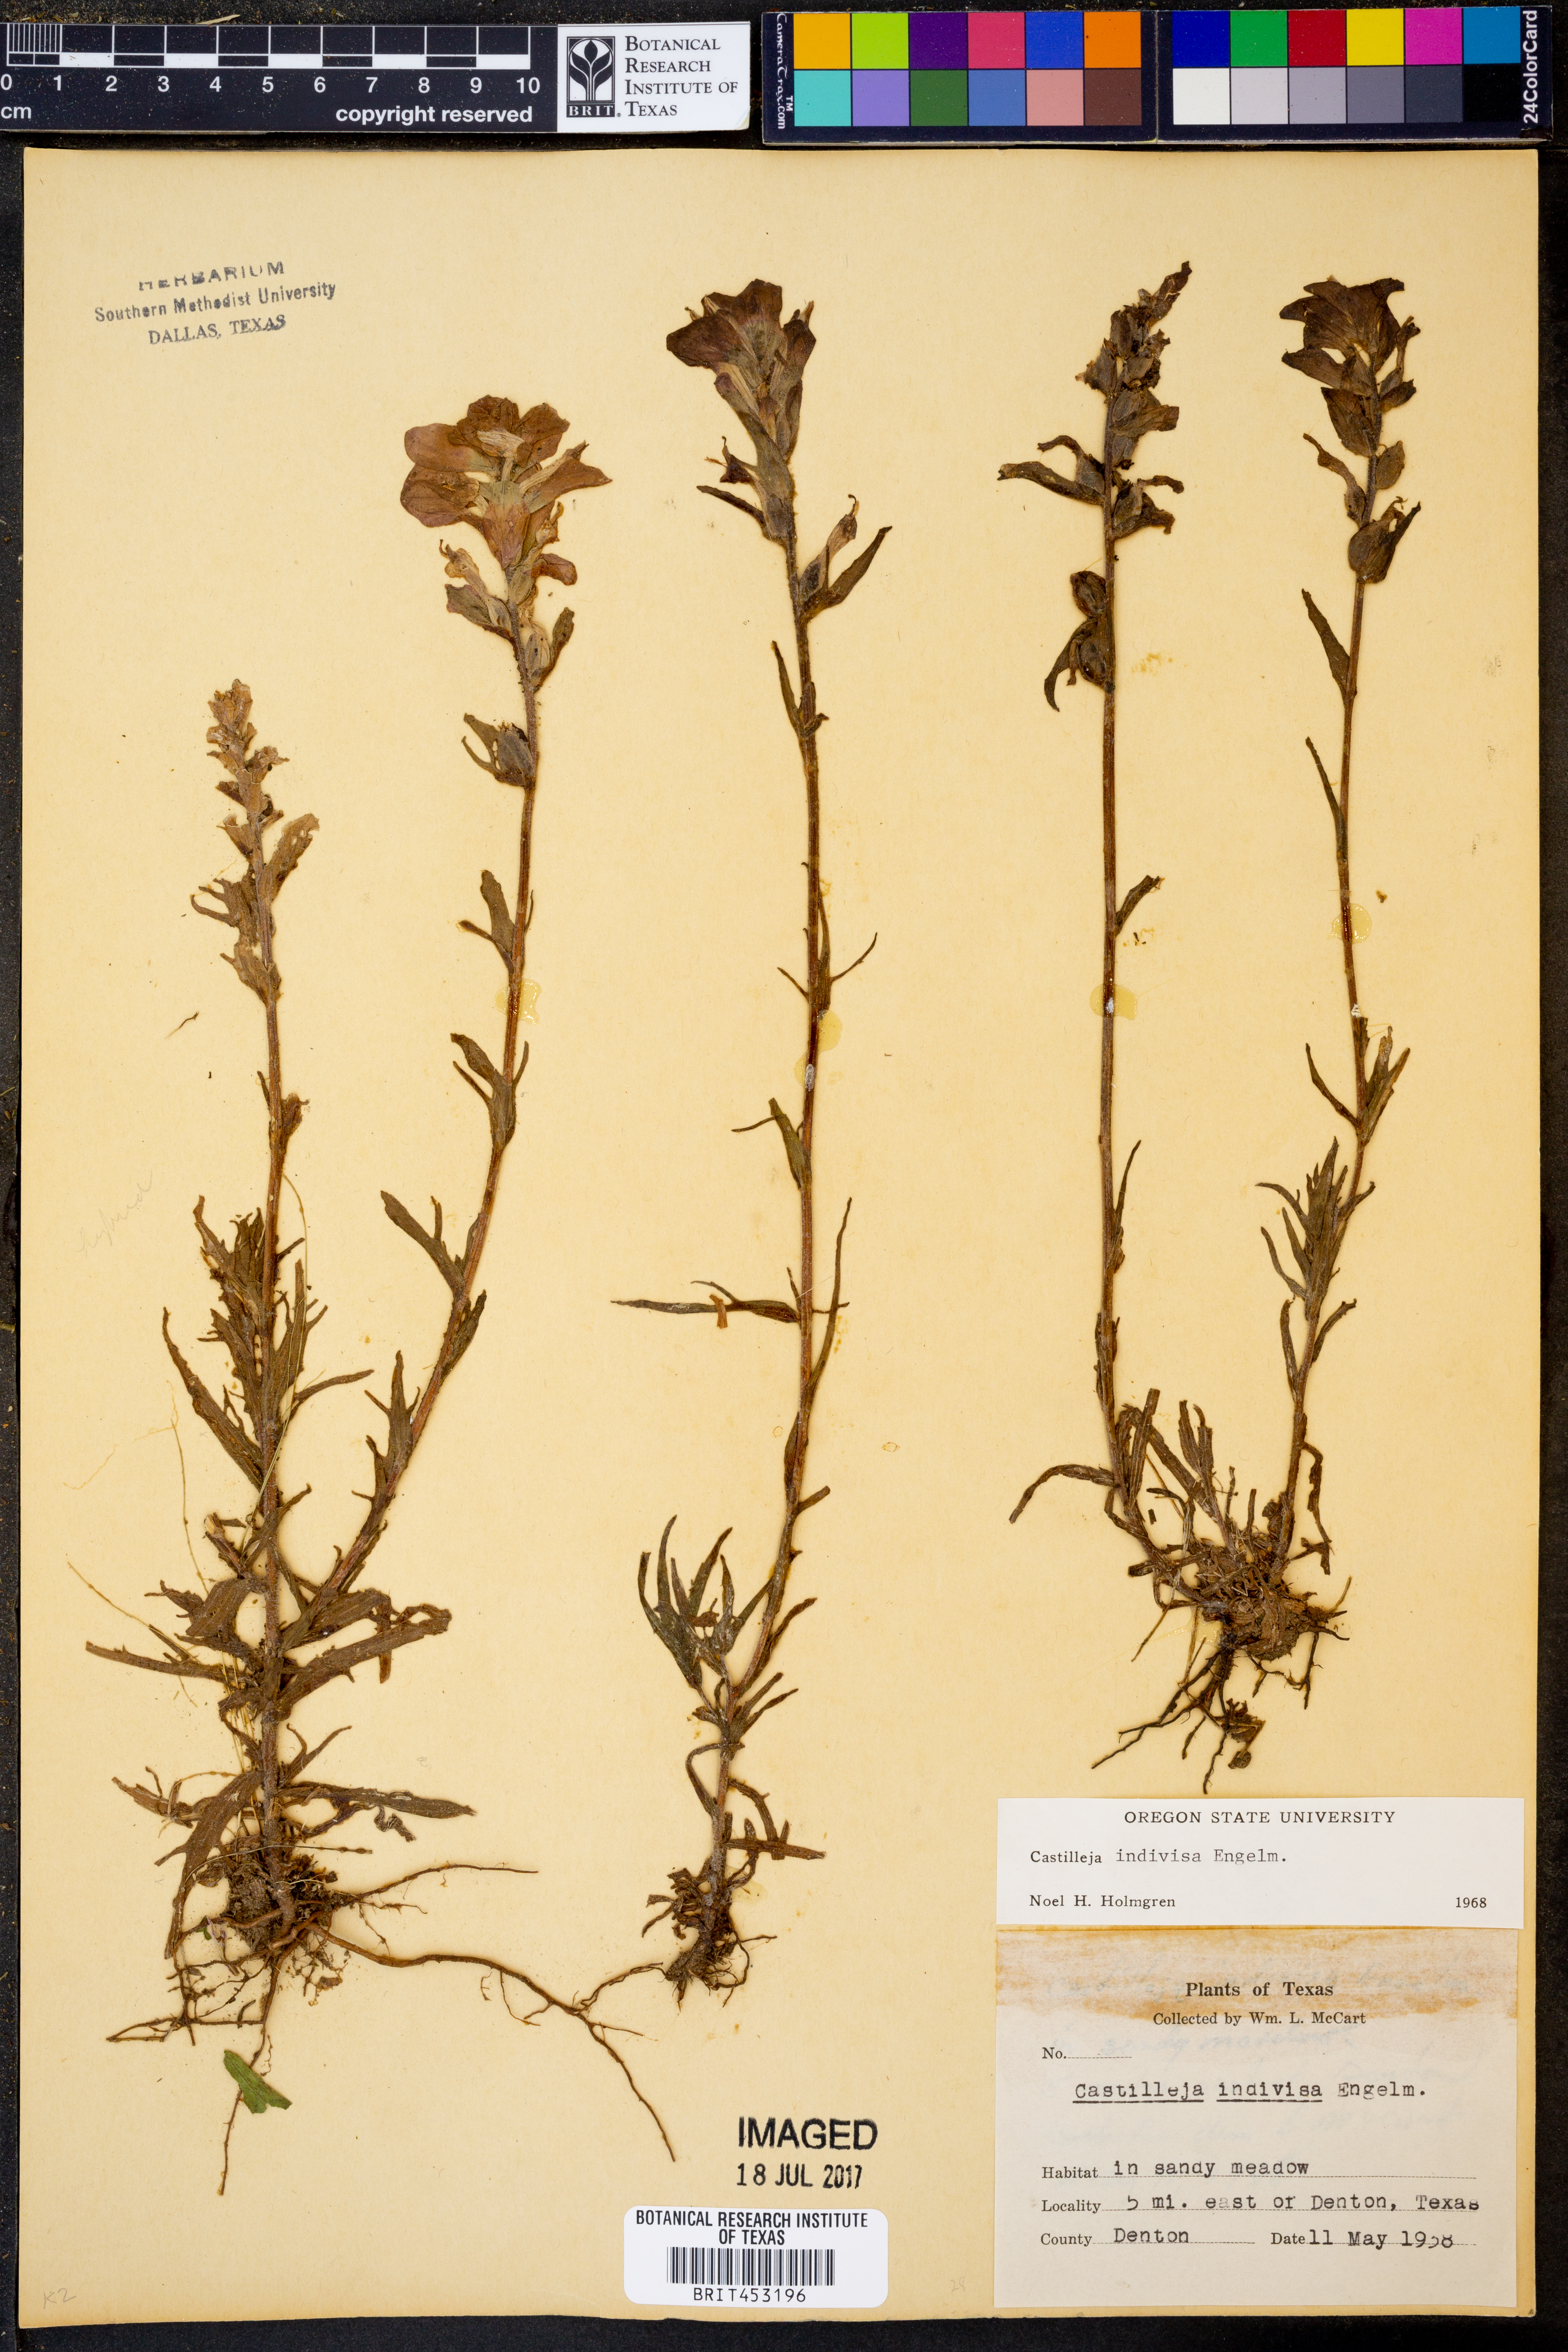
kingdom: Plantae
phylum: Tracheophyta
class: Magnoliopsida
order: Lamiales
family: Orobanchaceae
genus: Castilleja
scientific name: Castilleja indivisa
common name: Texas paintbrush
